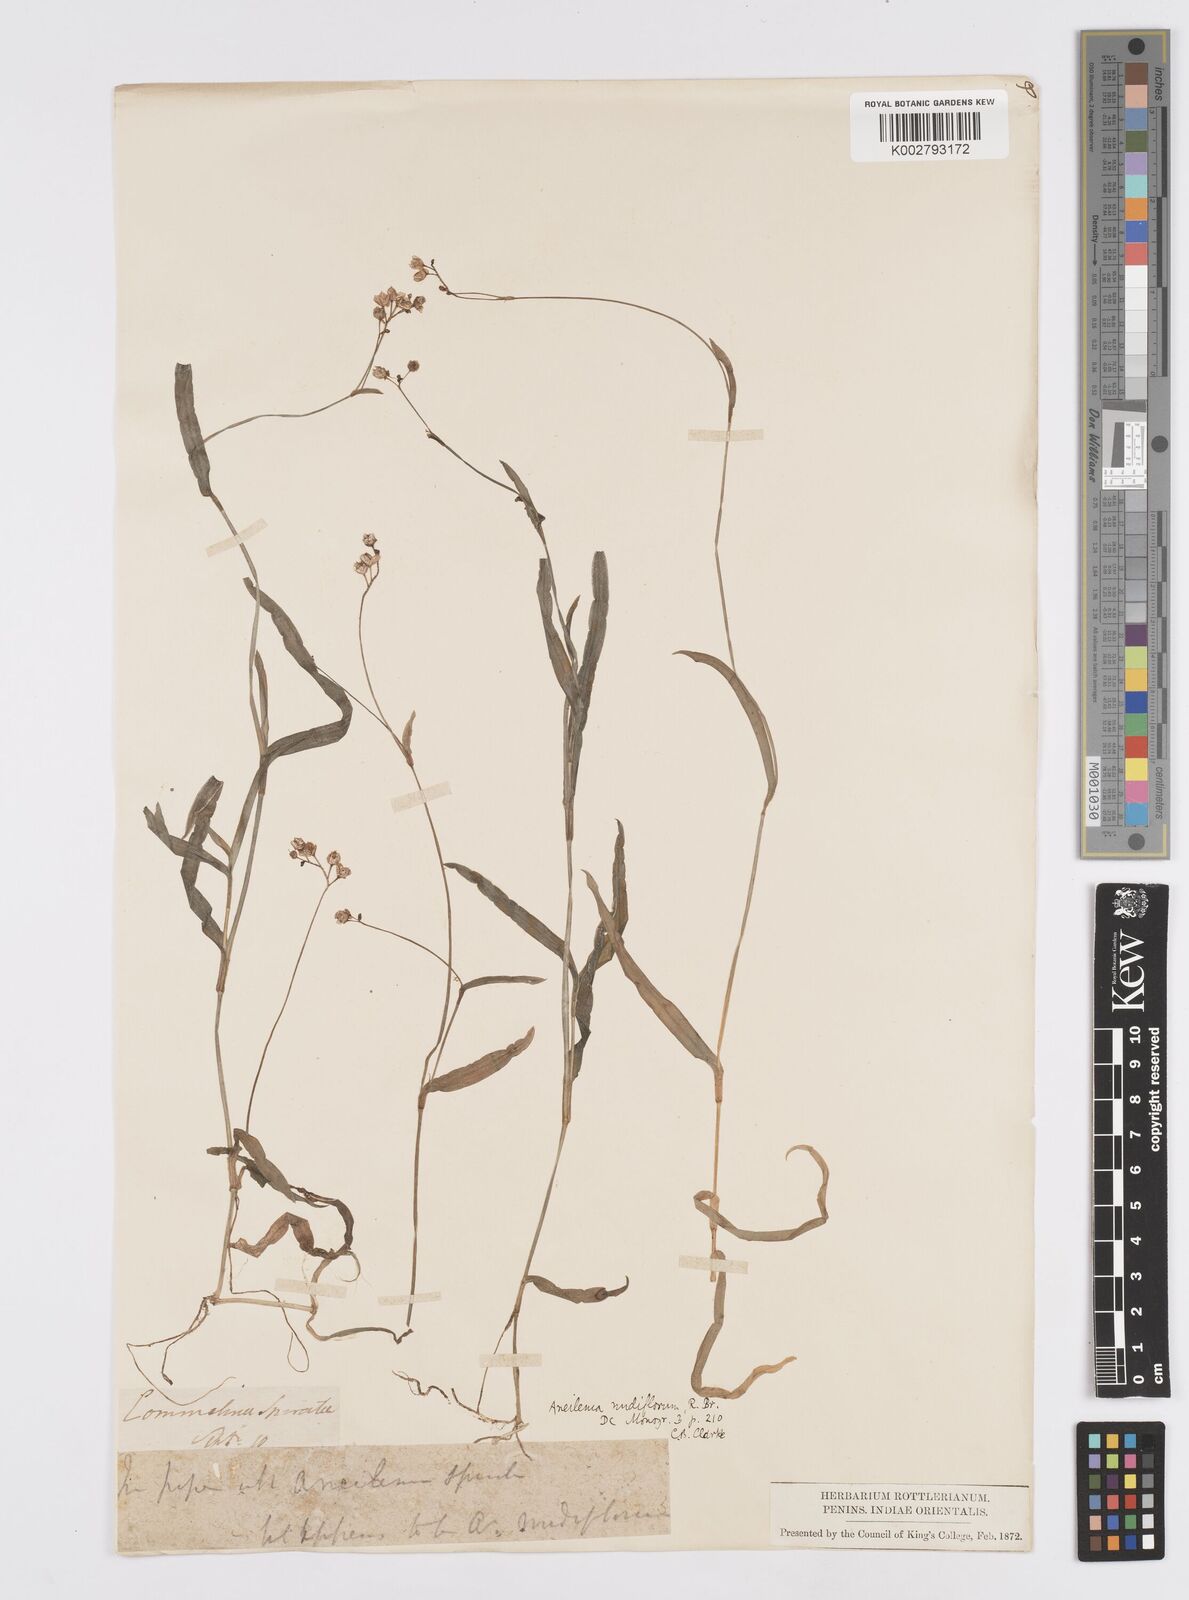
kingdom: Plantae
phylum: Tracheophyta
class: Liliopsida
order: Commelinales
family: Commelinaceae
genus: Murdannia
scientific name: Murdannia nudiflora
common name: Nakedstem dewflower
